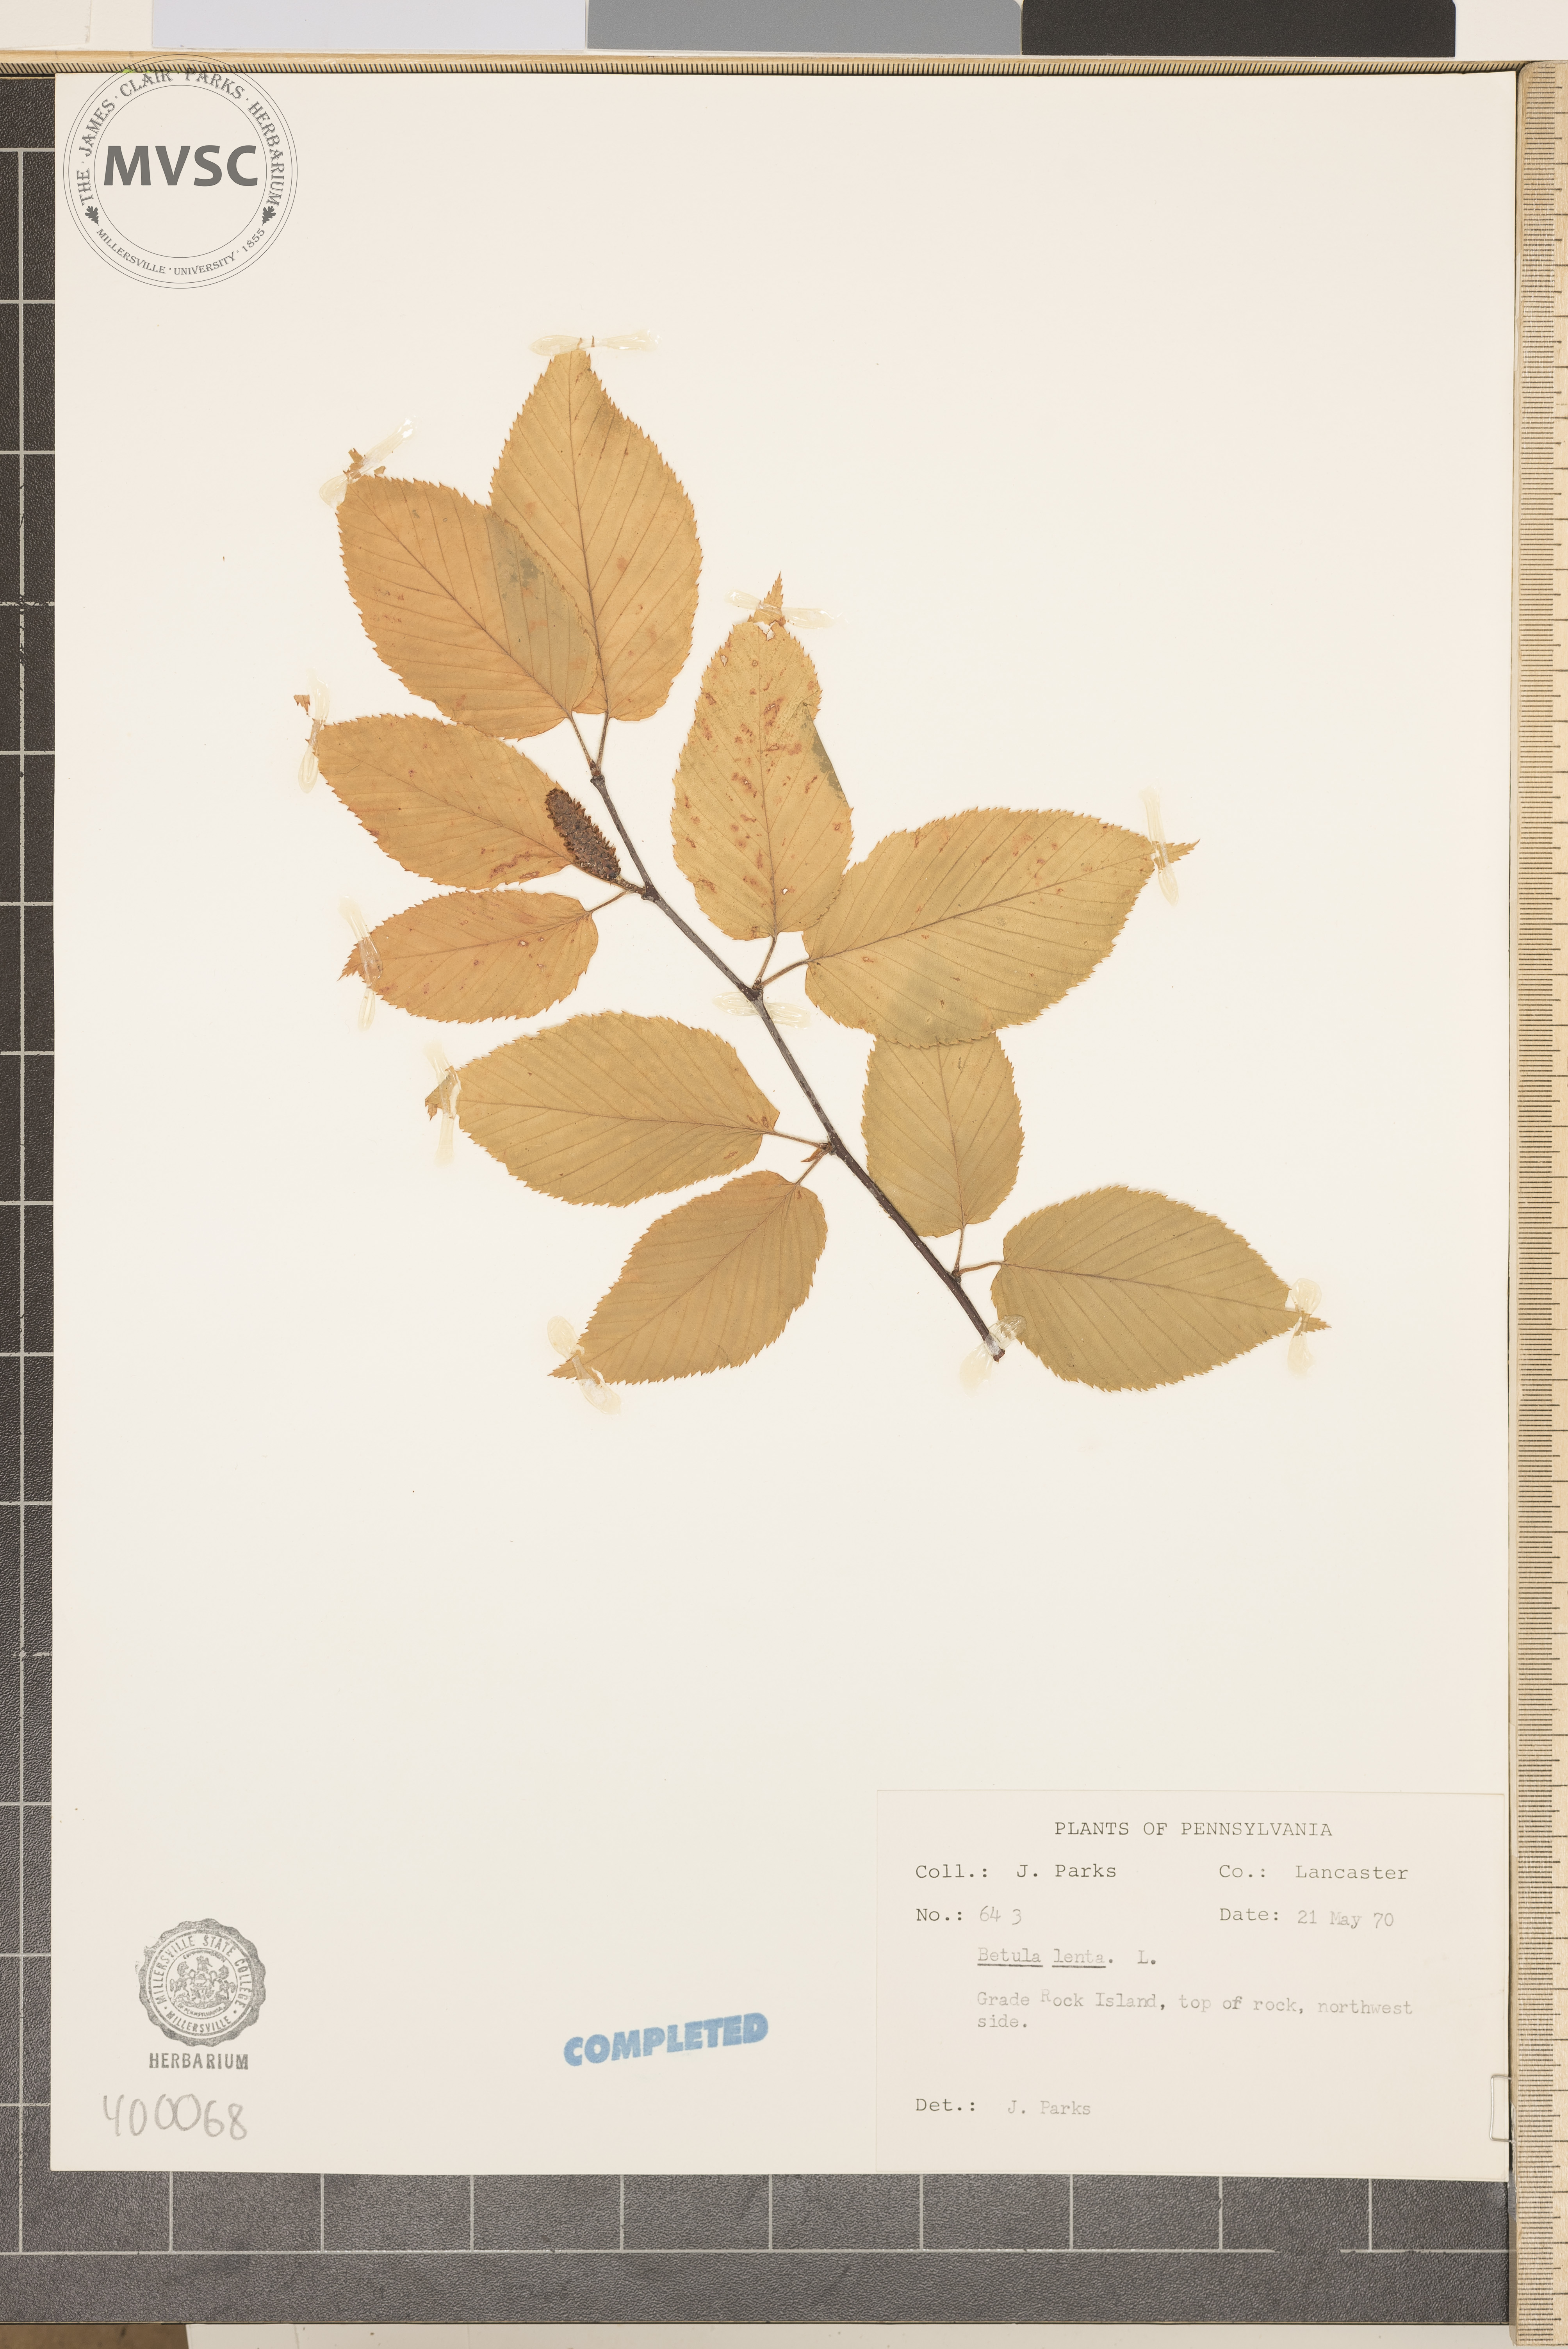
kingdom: Plantae
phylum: Tracheophyta
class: Magnoliopsida
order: Fagales
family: Betulaceae
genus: Betula
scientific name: Betula lenta
